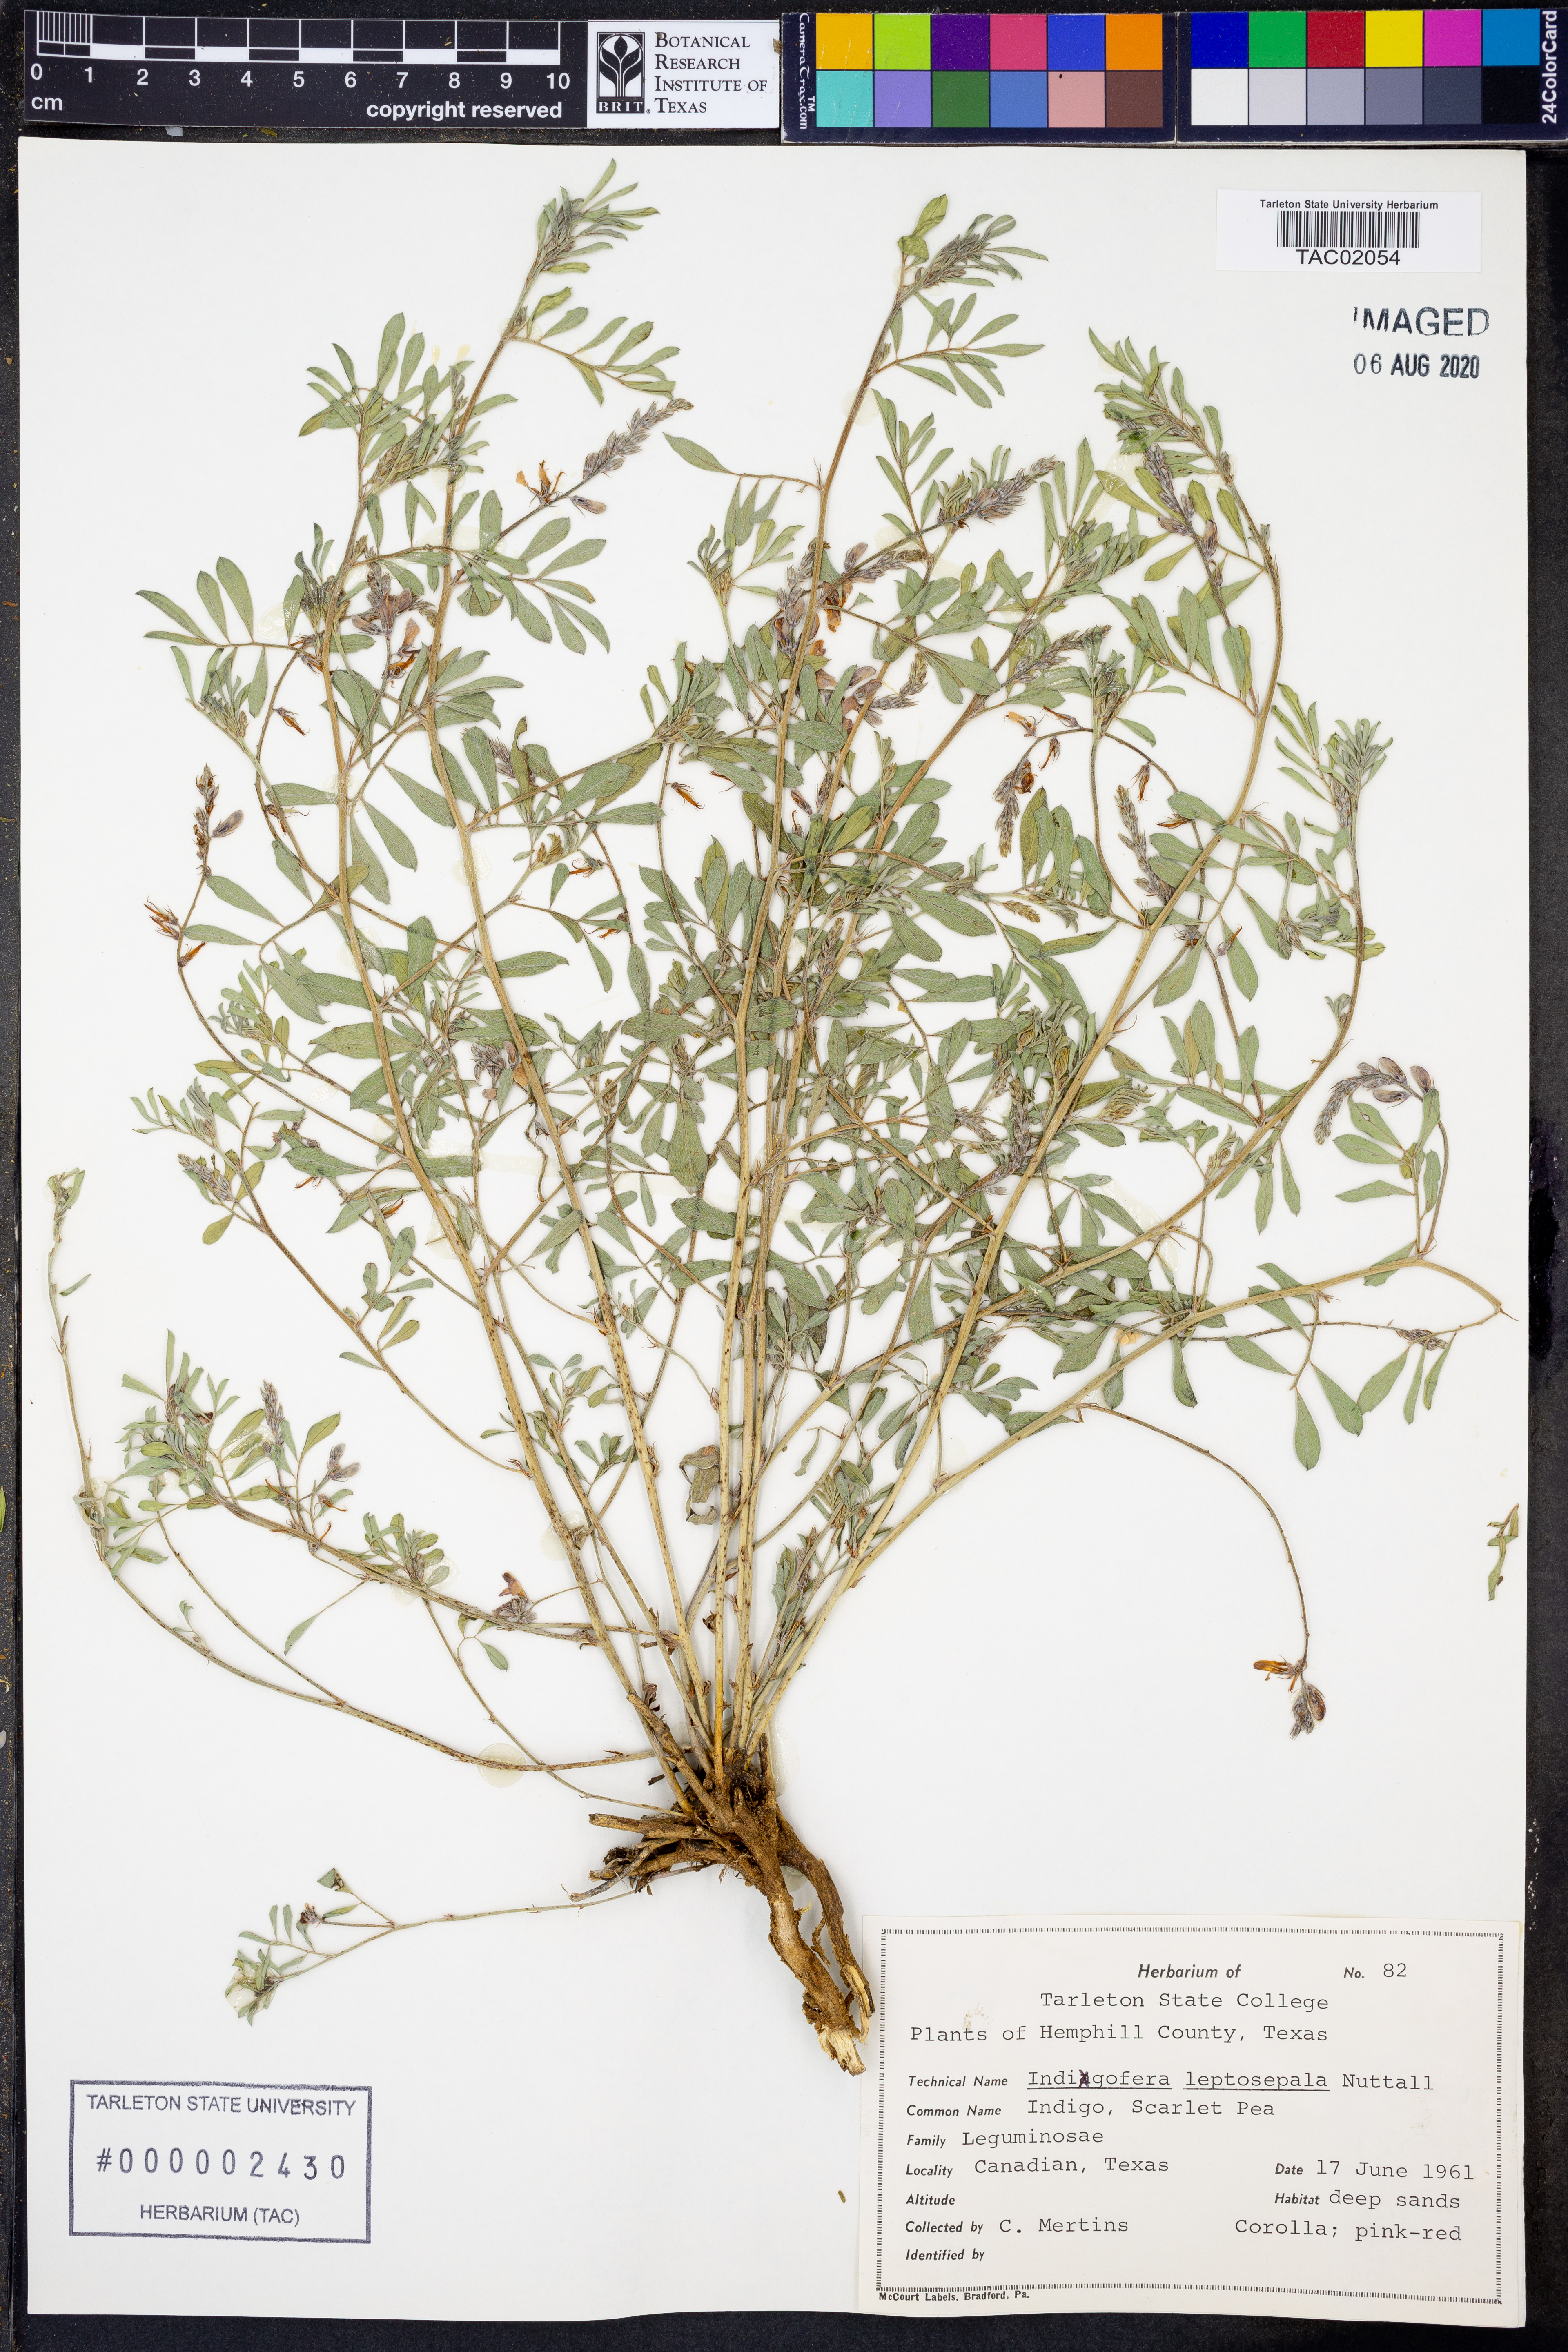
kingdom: Plantae
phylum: Tracheophyta
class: Magnoliopsida
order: Fabales
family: Fabaceae
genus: Indigofera
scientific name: Indigofera argutidens
